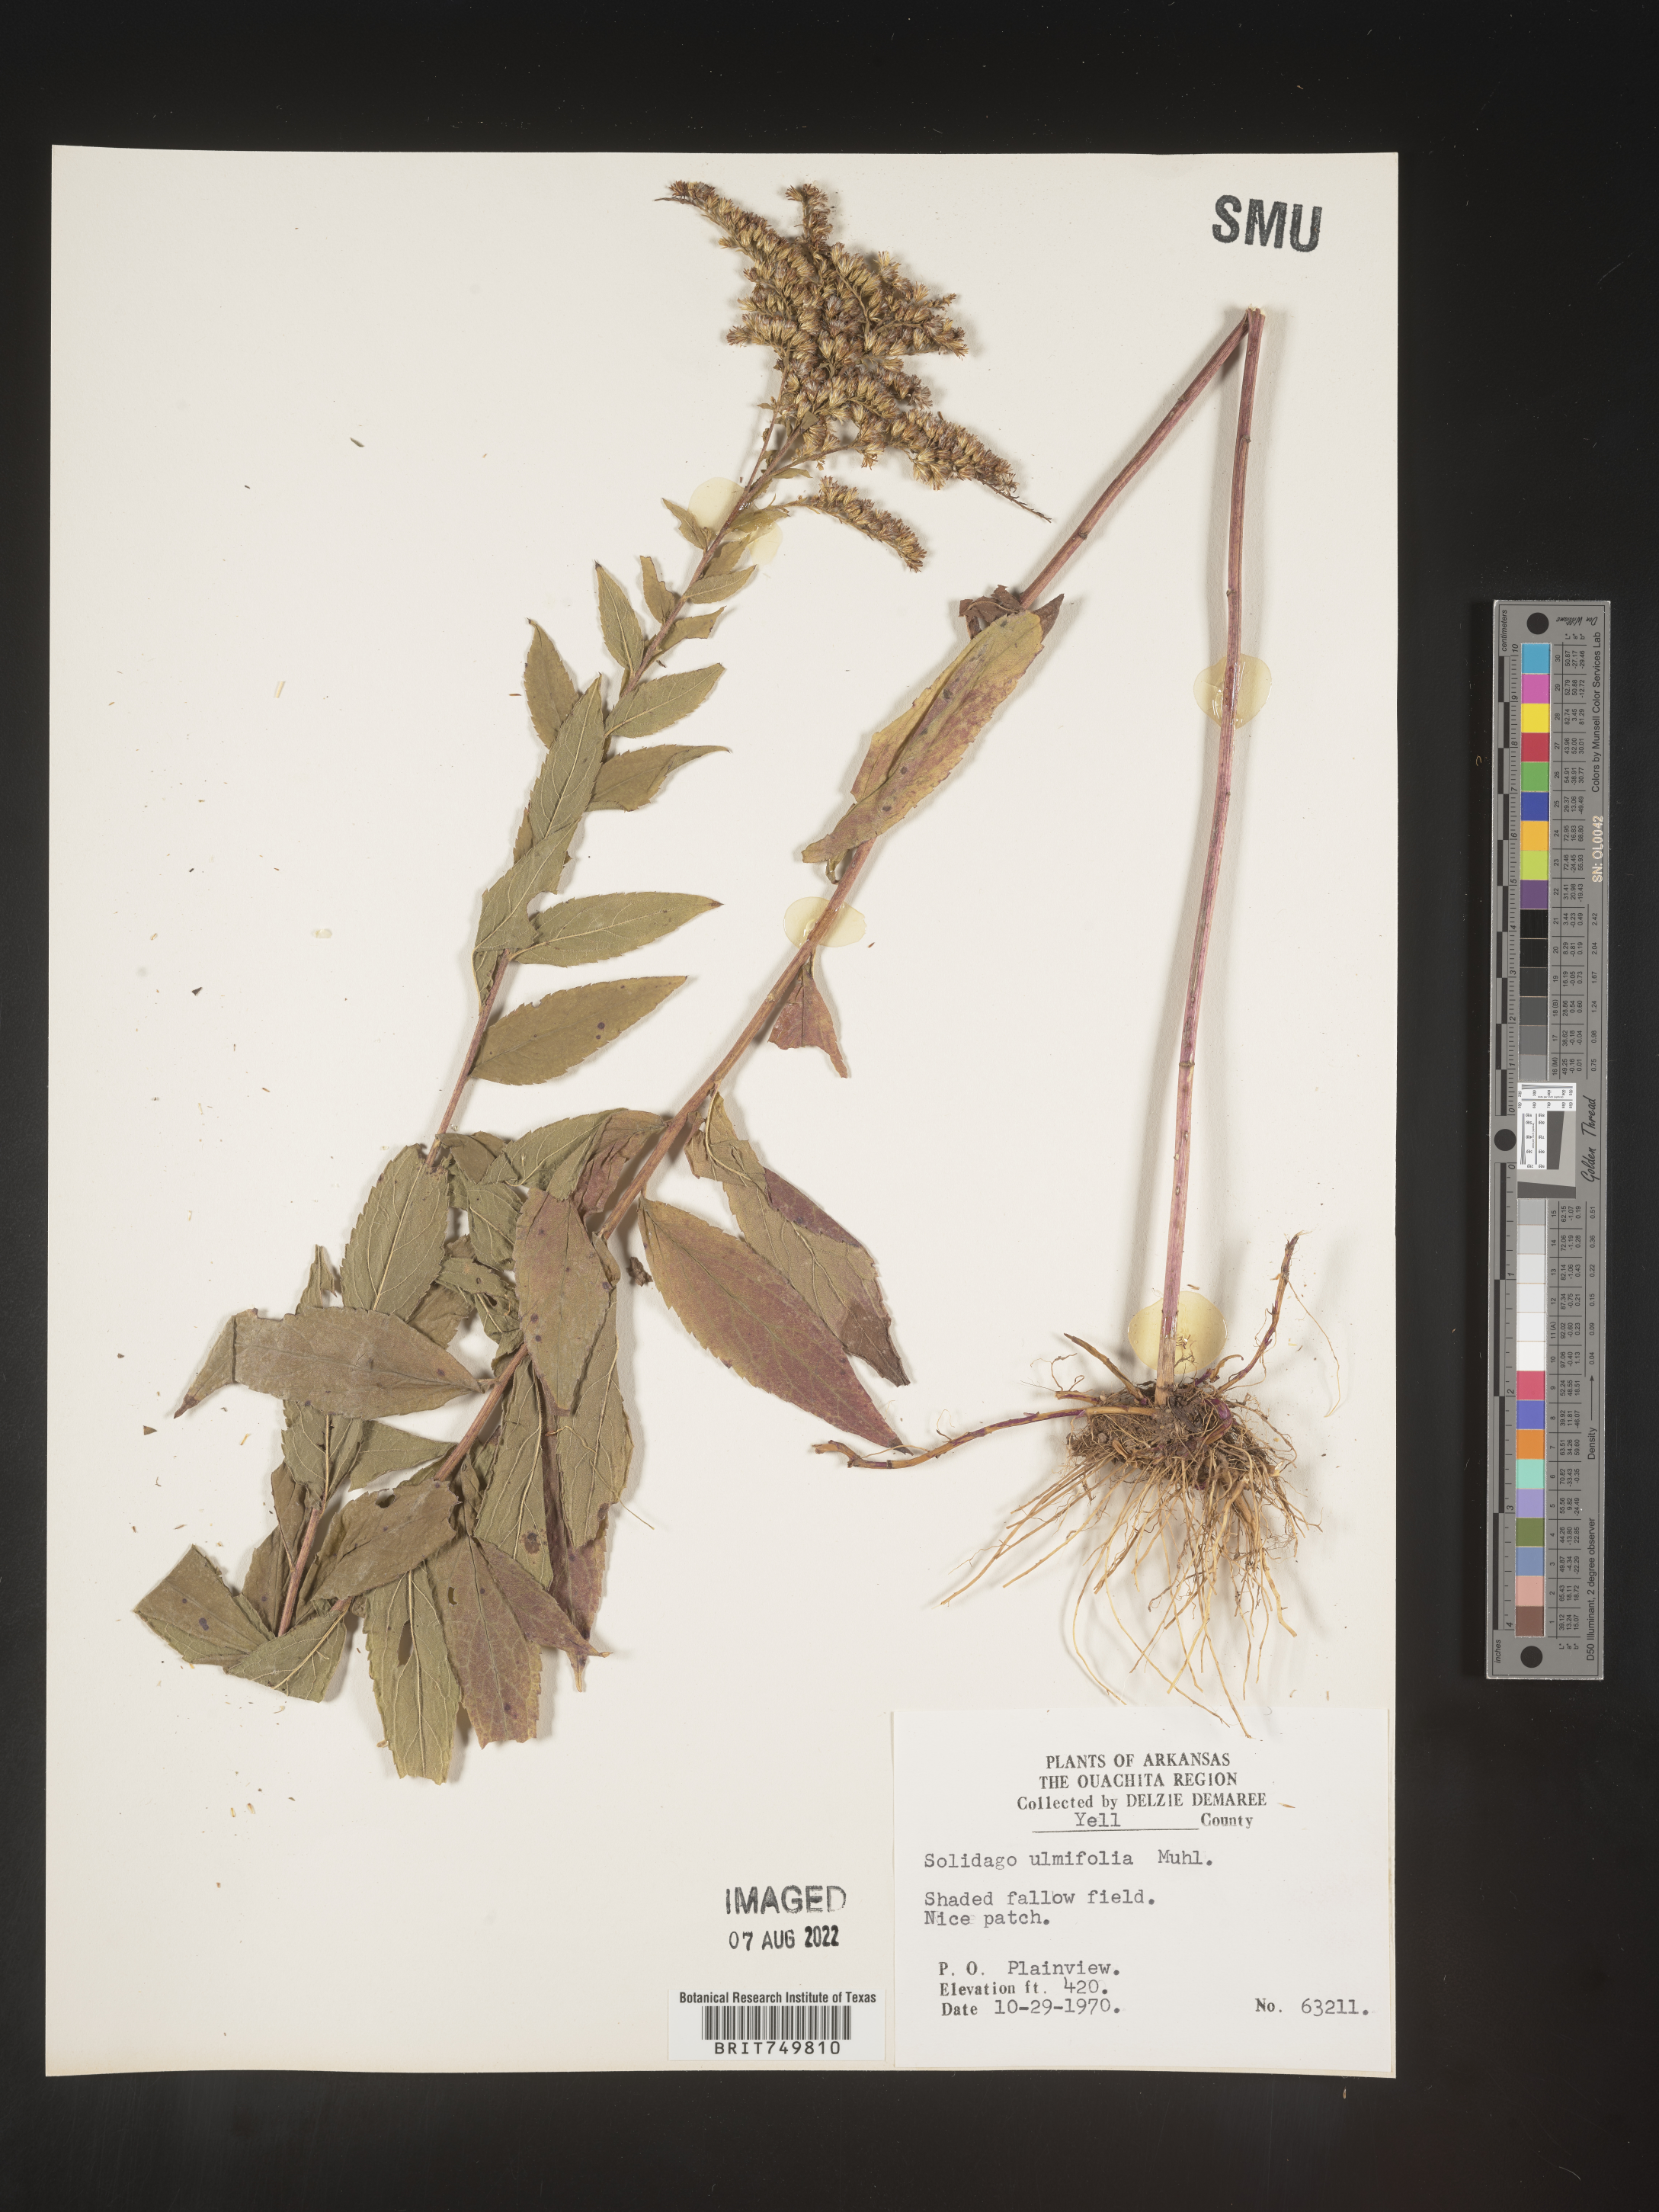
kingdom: Plantae
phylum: Tracheophyta
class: Magnoliopsida
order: Asterales
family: Asteraceae
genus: Solidago
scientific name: Solidago ulmifolia
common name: Elm-leaf goldenrod
